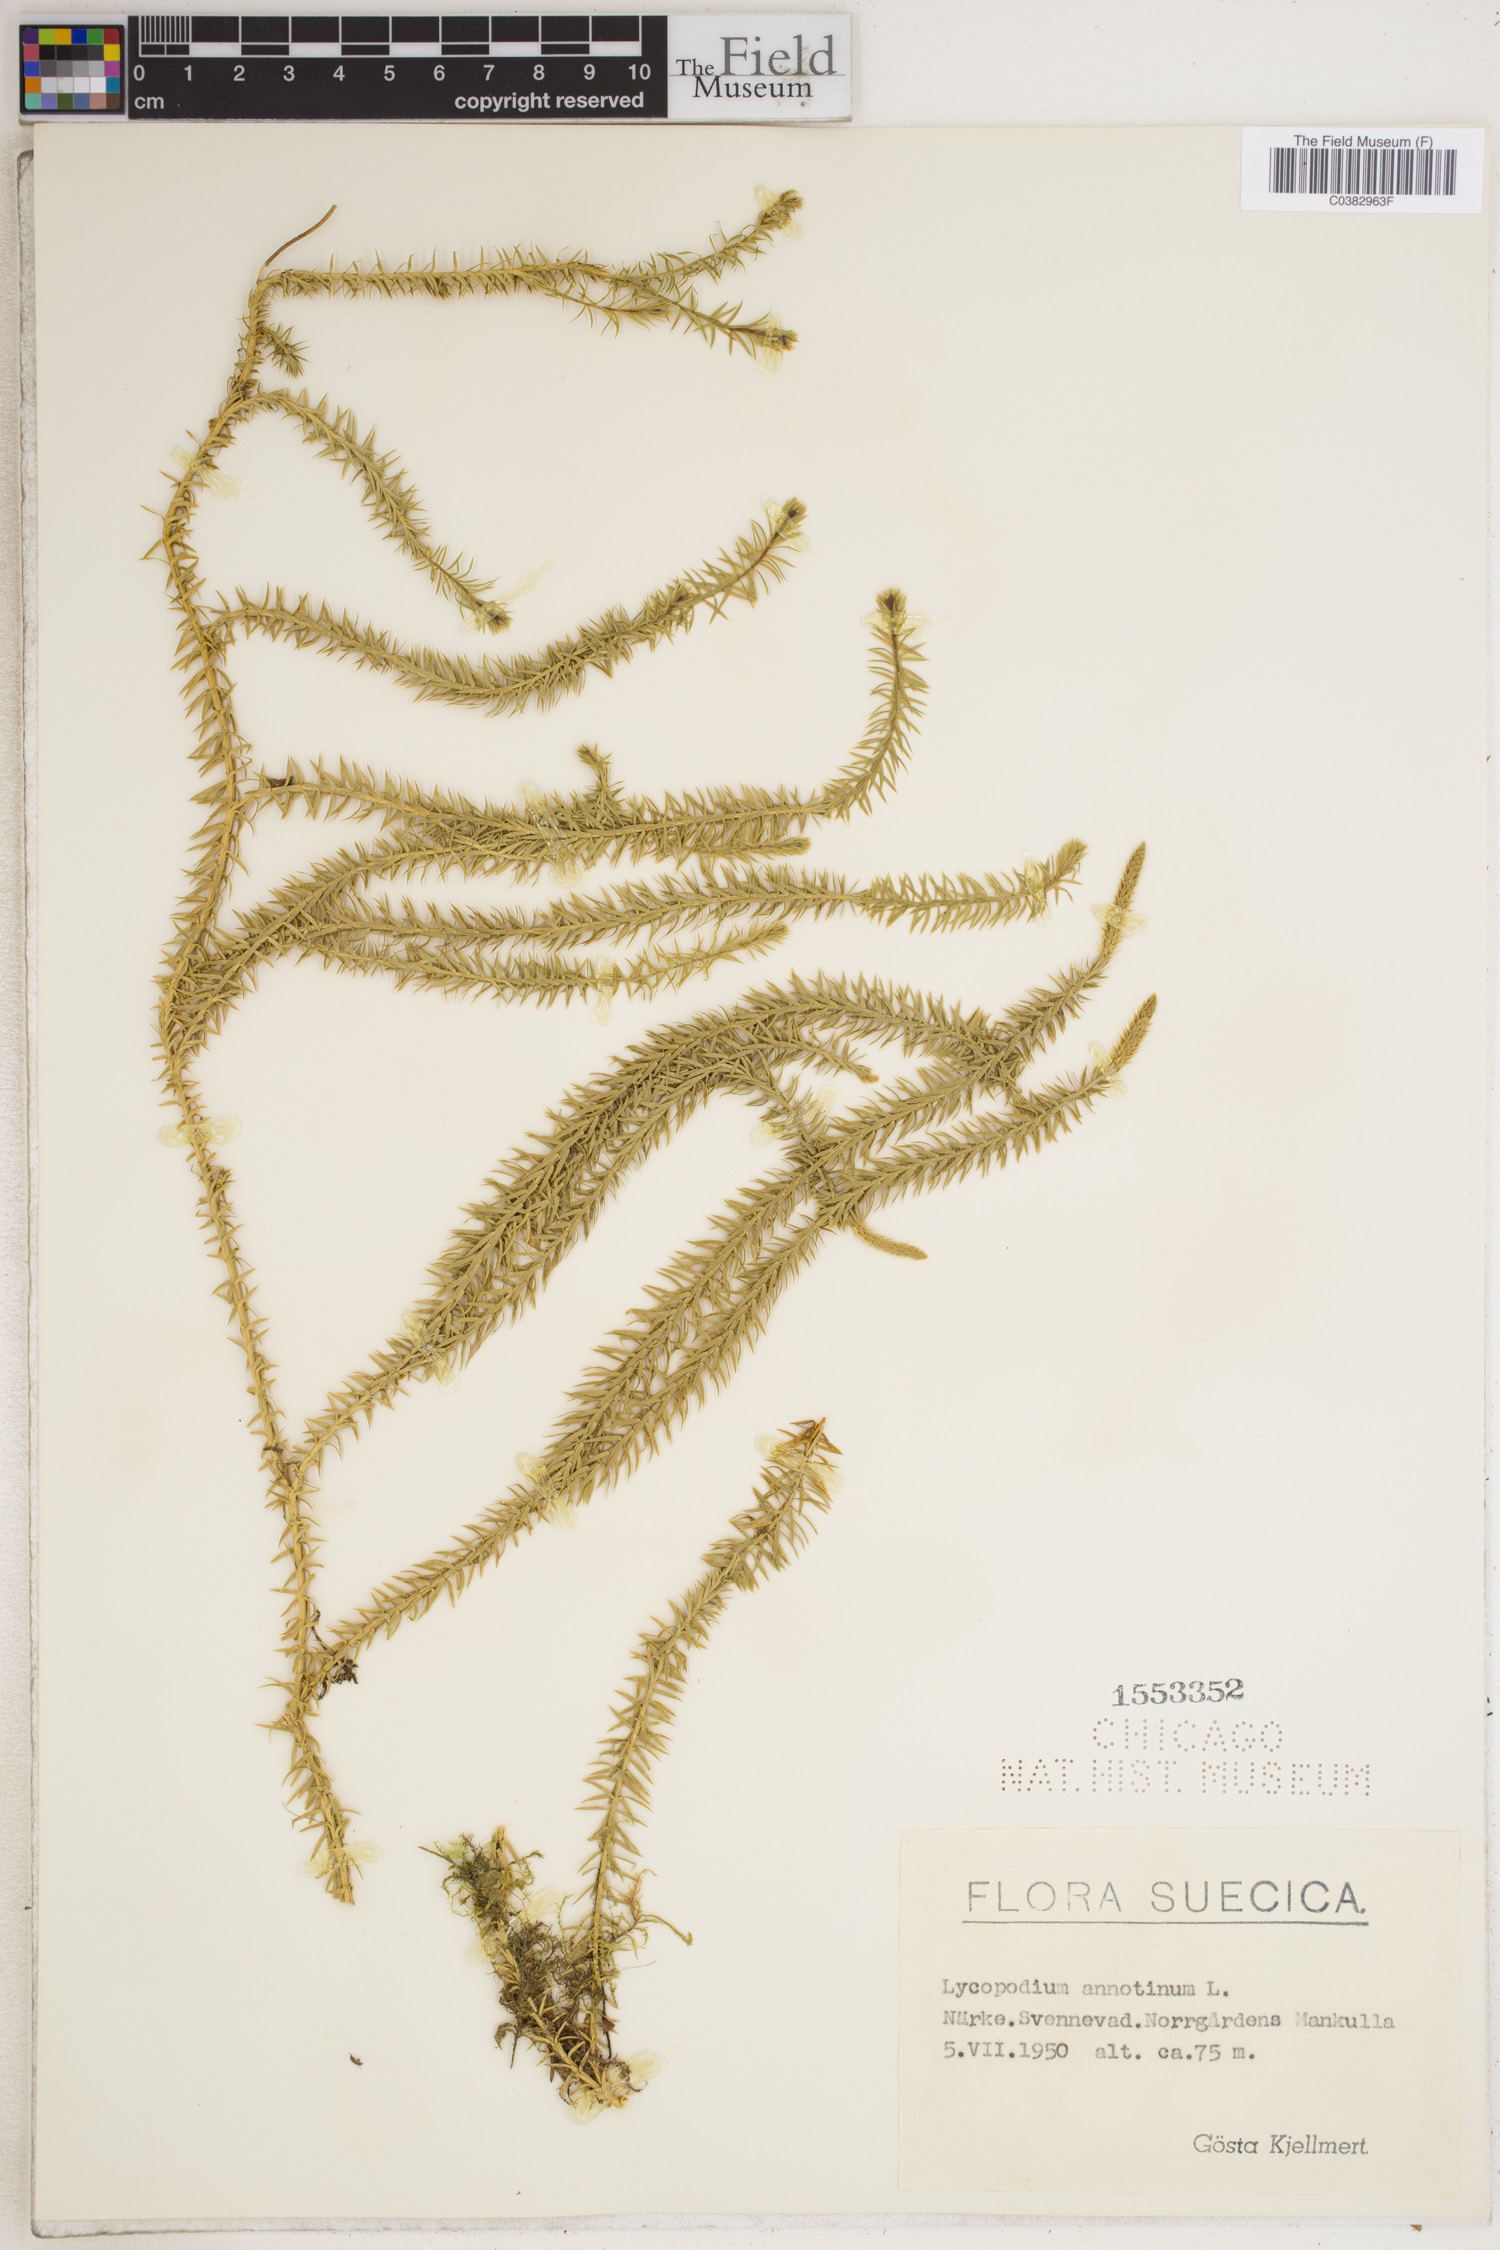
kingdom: Plantae
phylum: Tracheophyta
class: Lycopodiopsida
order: Lycopodiales
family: Lycopodiaceae
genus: Spinulum
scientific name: Spinulum annotinum
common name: Interrupted club-moss
